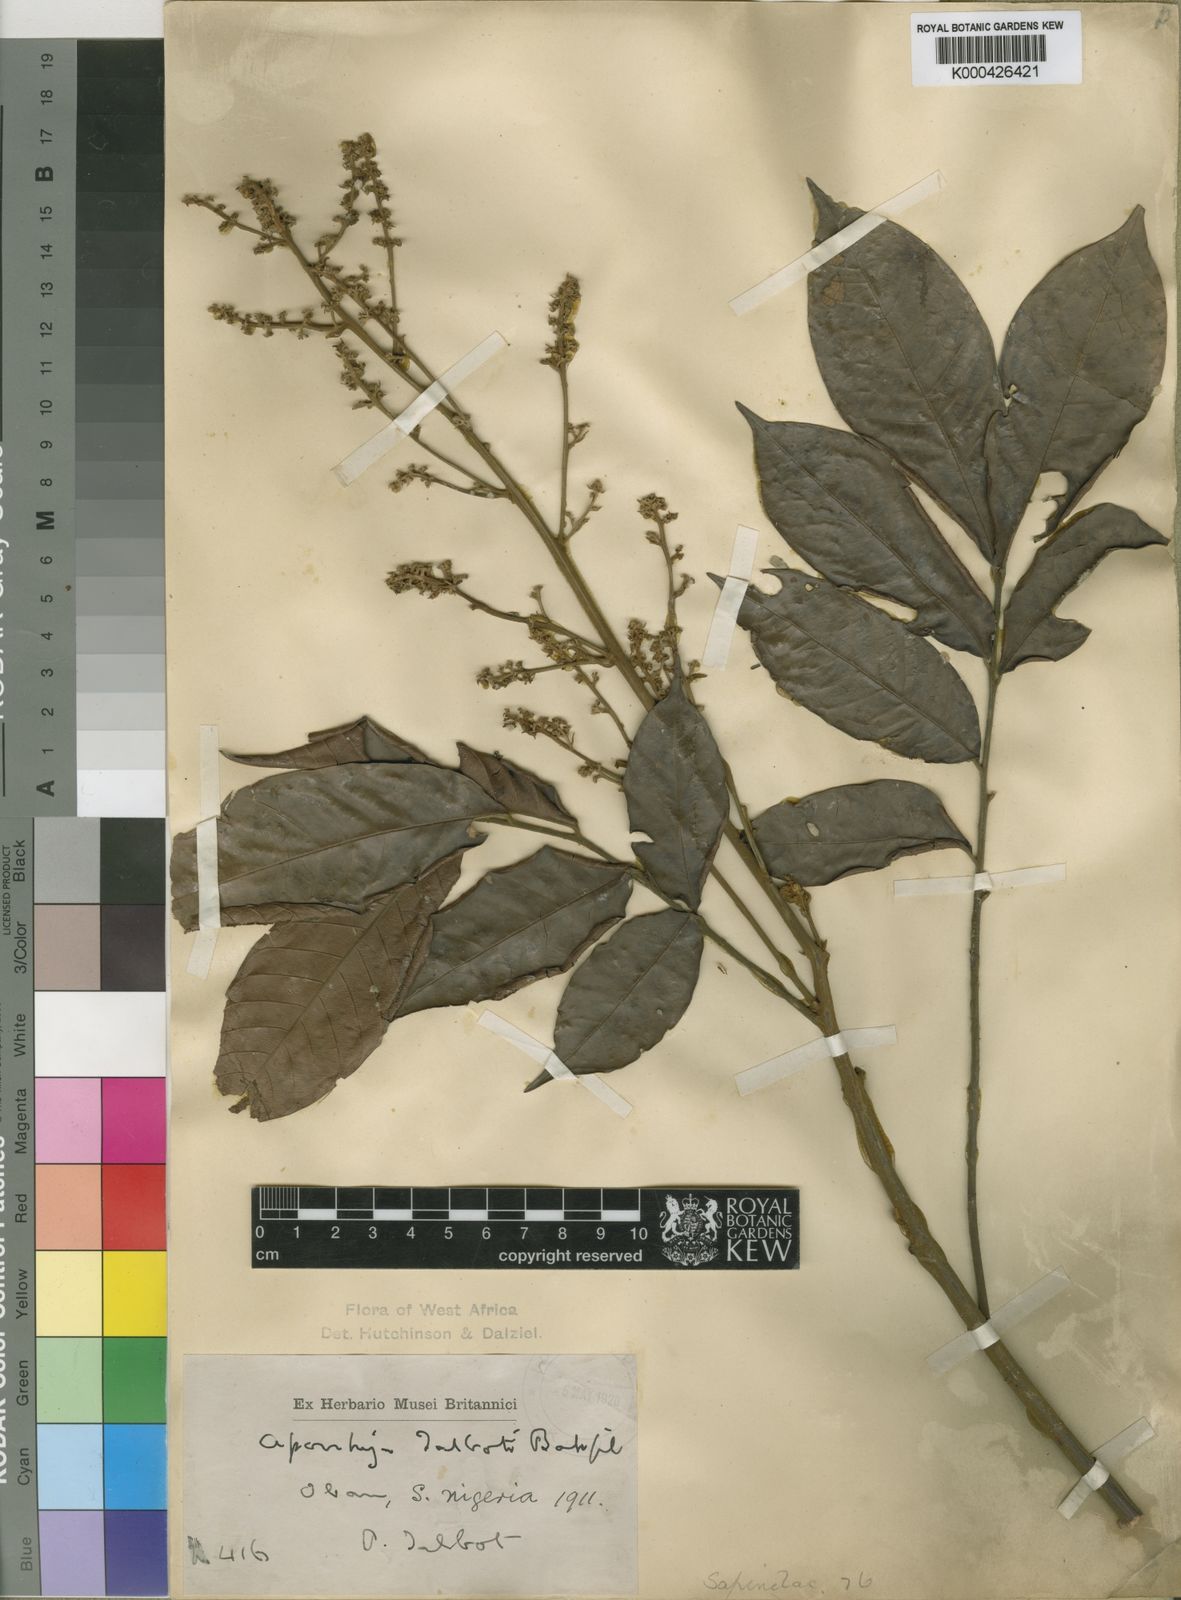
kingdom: Plantae
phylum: Tracheophyta
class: Magnoliopsida
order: Sapindales
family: Sapindaceae
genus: Aporrhiza
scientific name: Aporrhiza talbotii
